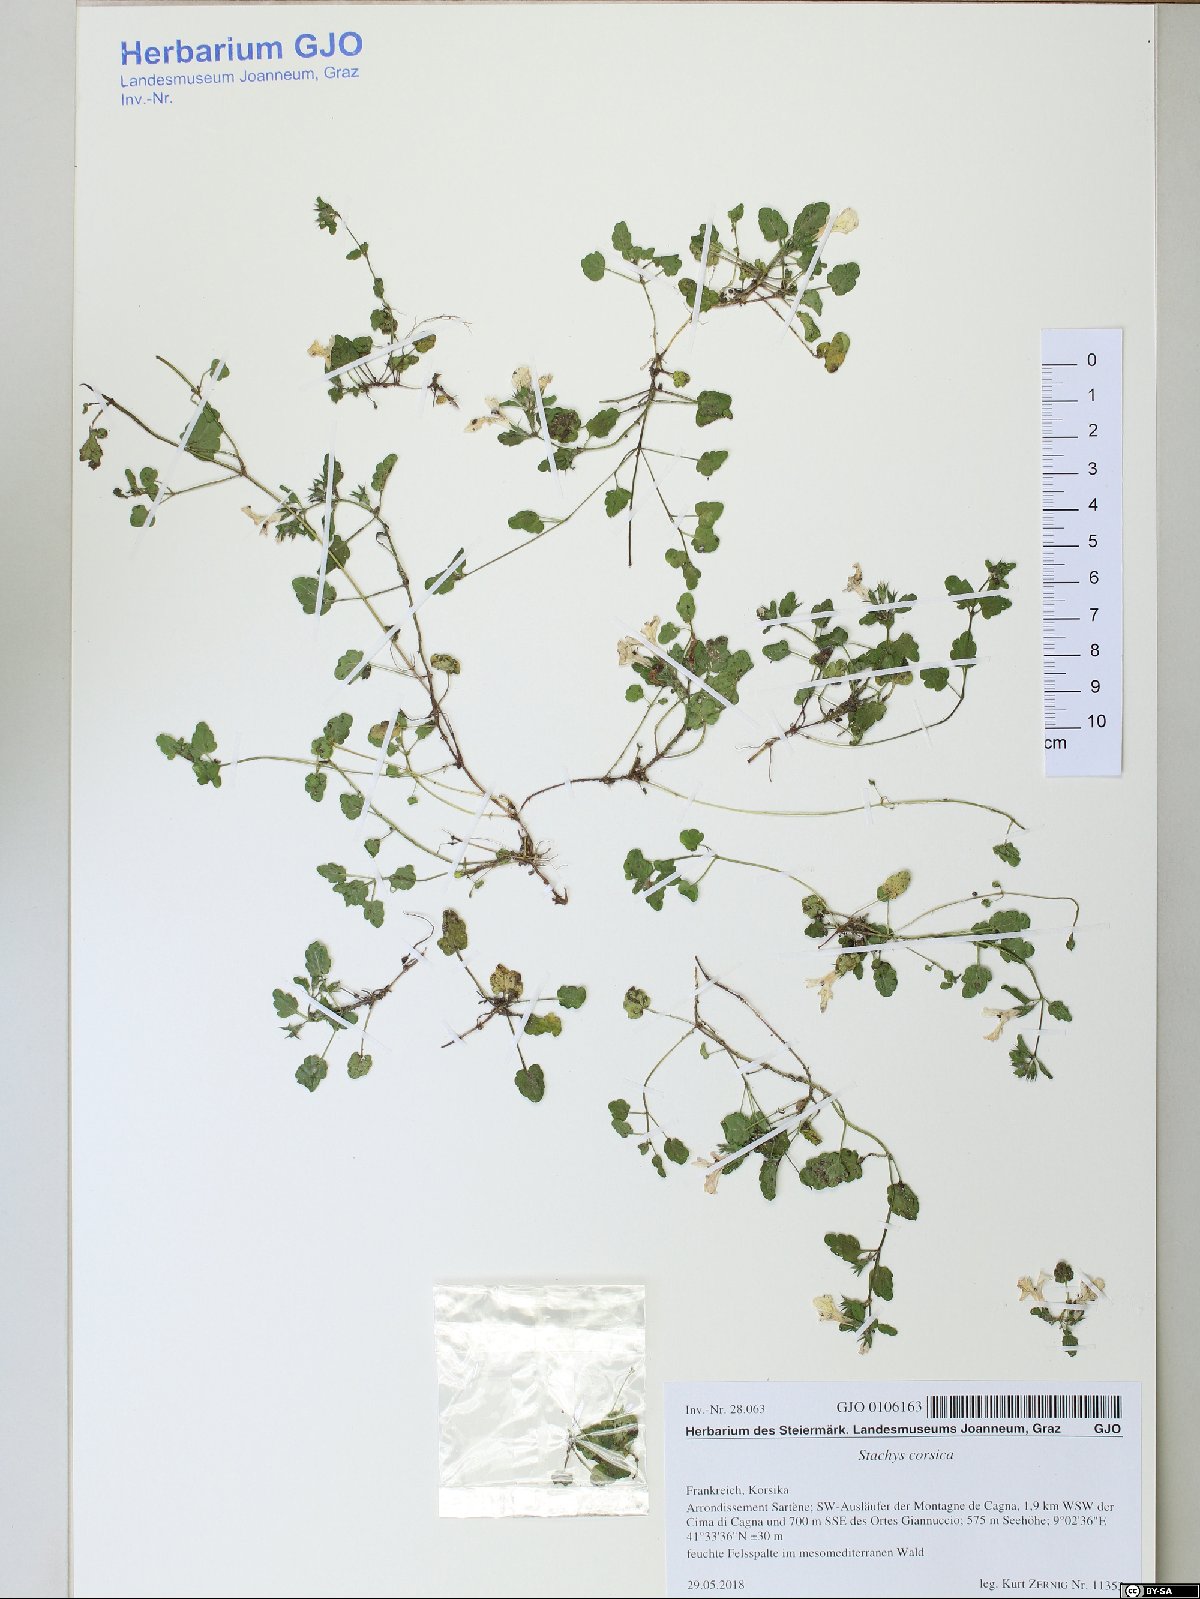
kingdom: Plantae
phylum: Tracheophyta
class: Magnoliopsida
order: Lamiales
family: Lamiaceae
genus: Stachys
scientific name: Stachys corsica
